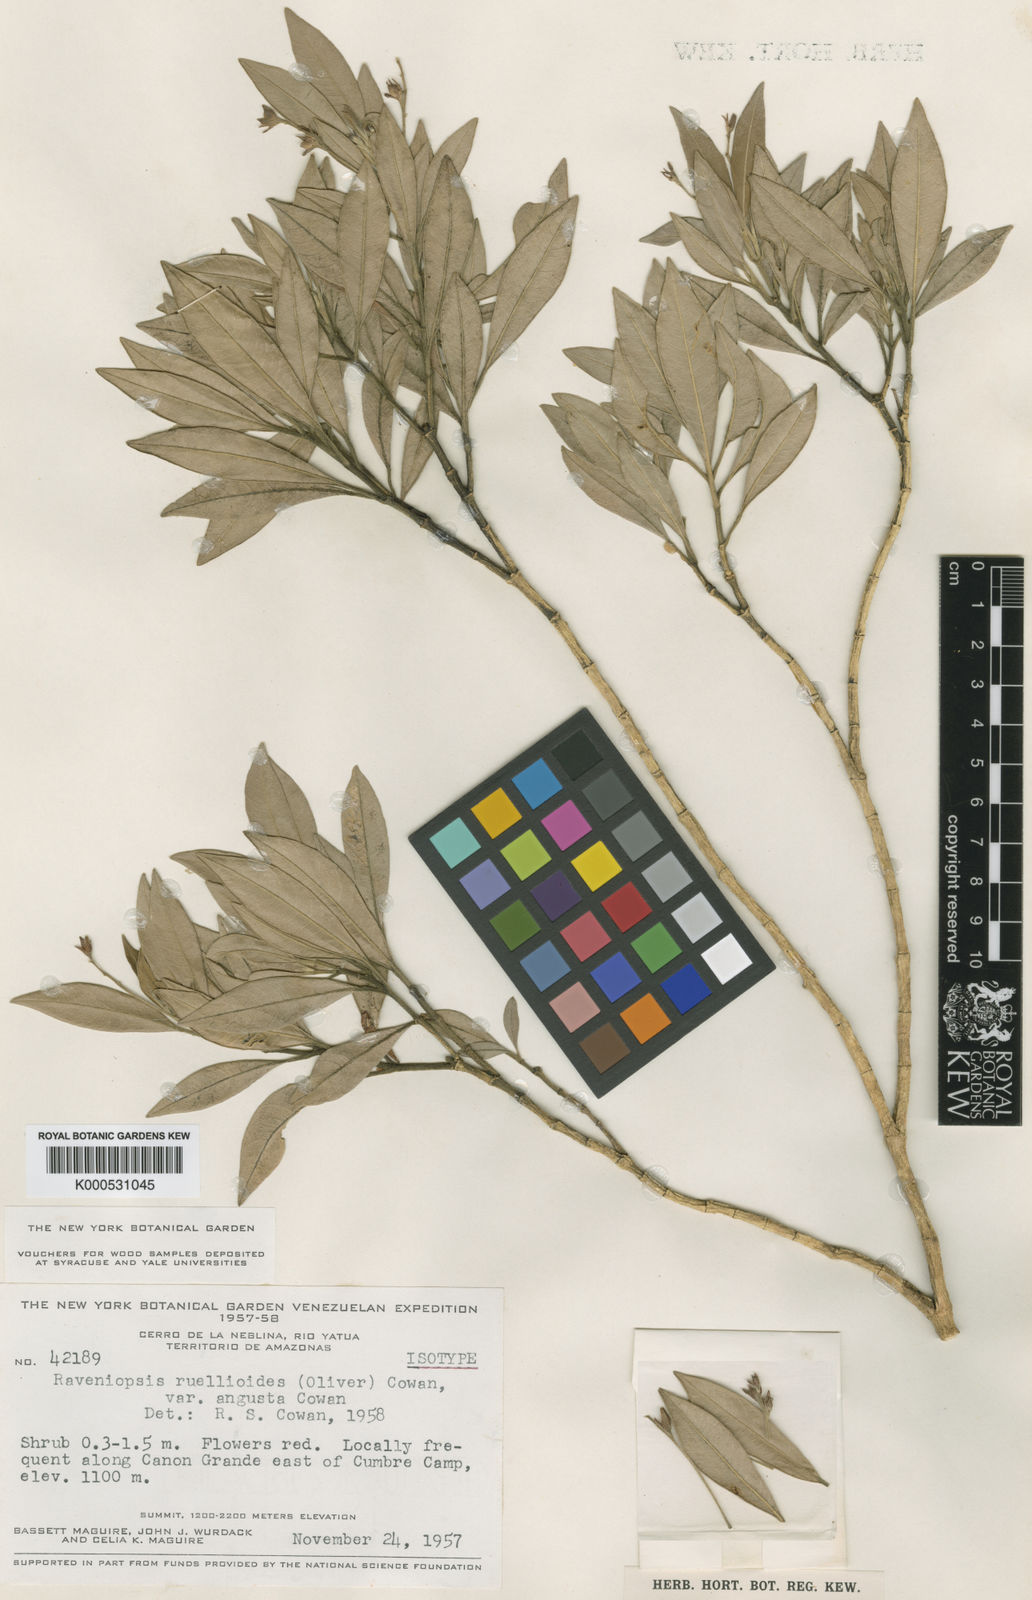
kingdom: Plantae
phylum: Tracheophyta
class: Magnoliopsida
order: Sapindales
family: Rutaceae
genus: Raveniopsis
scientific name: Raveniopsis ruellioides
